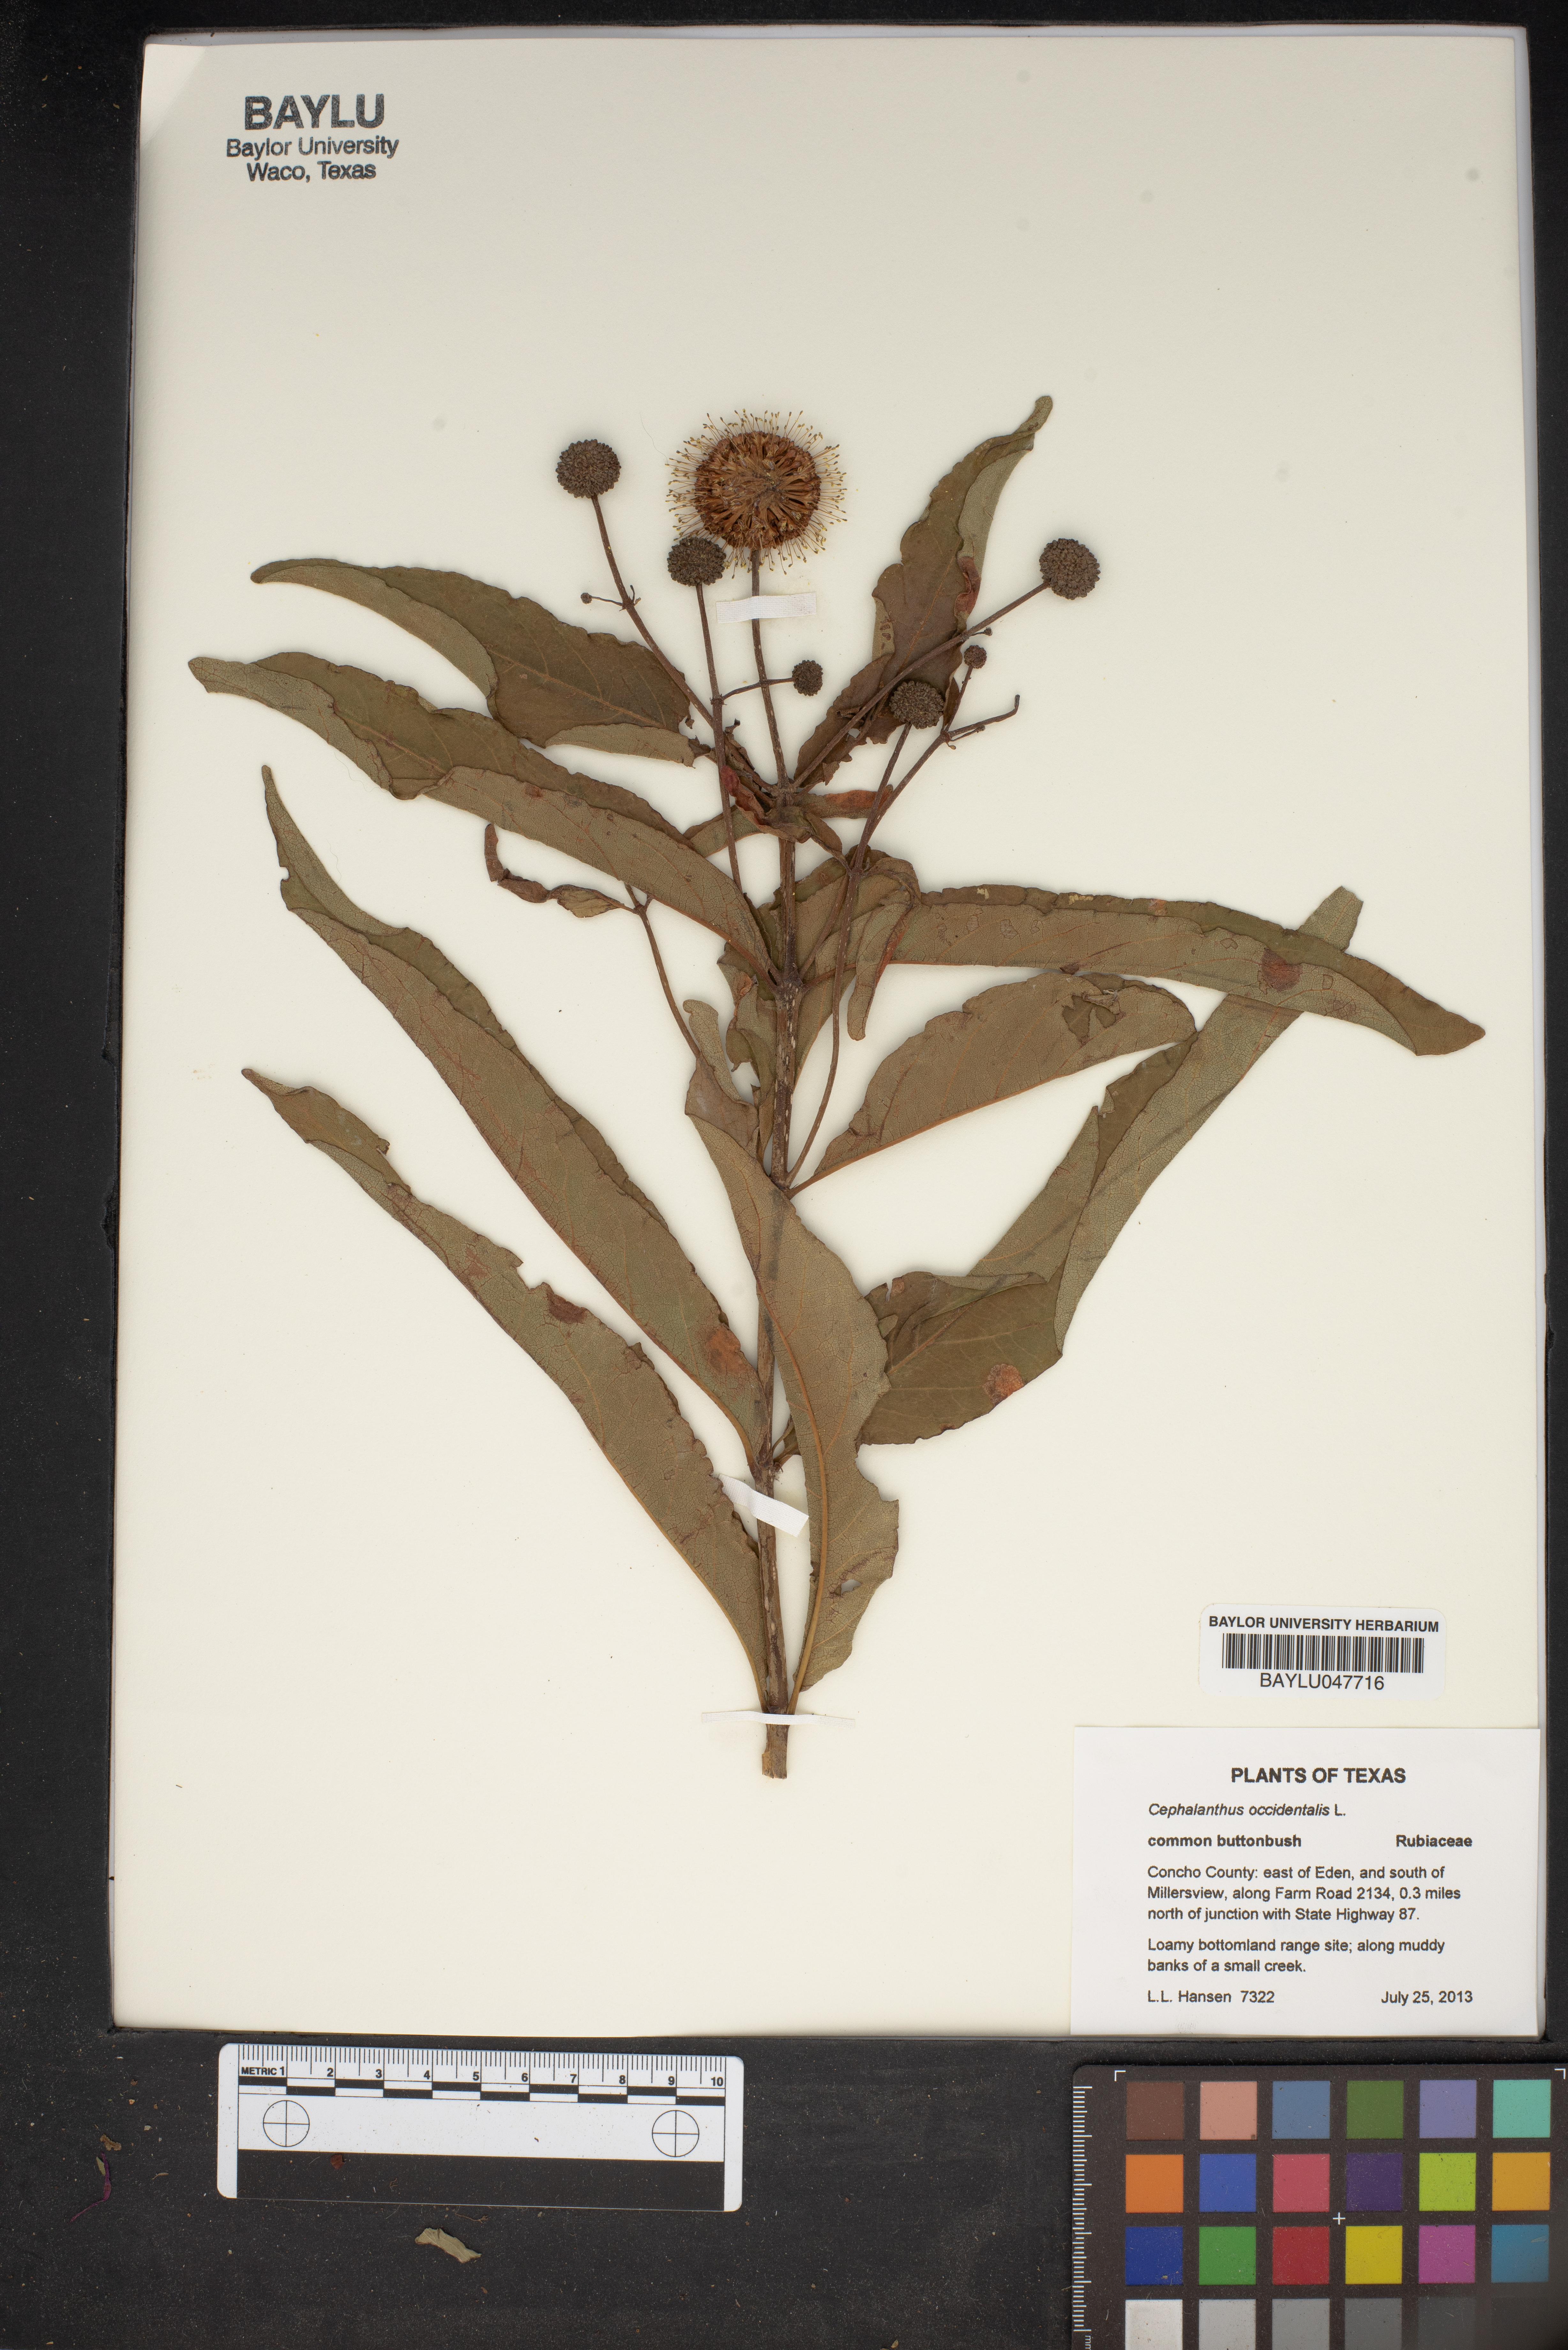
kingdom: Plantae
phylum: Tracheophyta
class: Magnoliopsida
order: Gentianales
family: Rubiaceae
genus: Cephalanthus
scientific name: Cephalanthus occidentalis
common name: Button-willow
